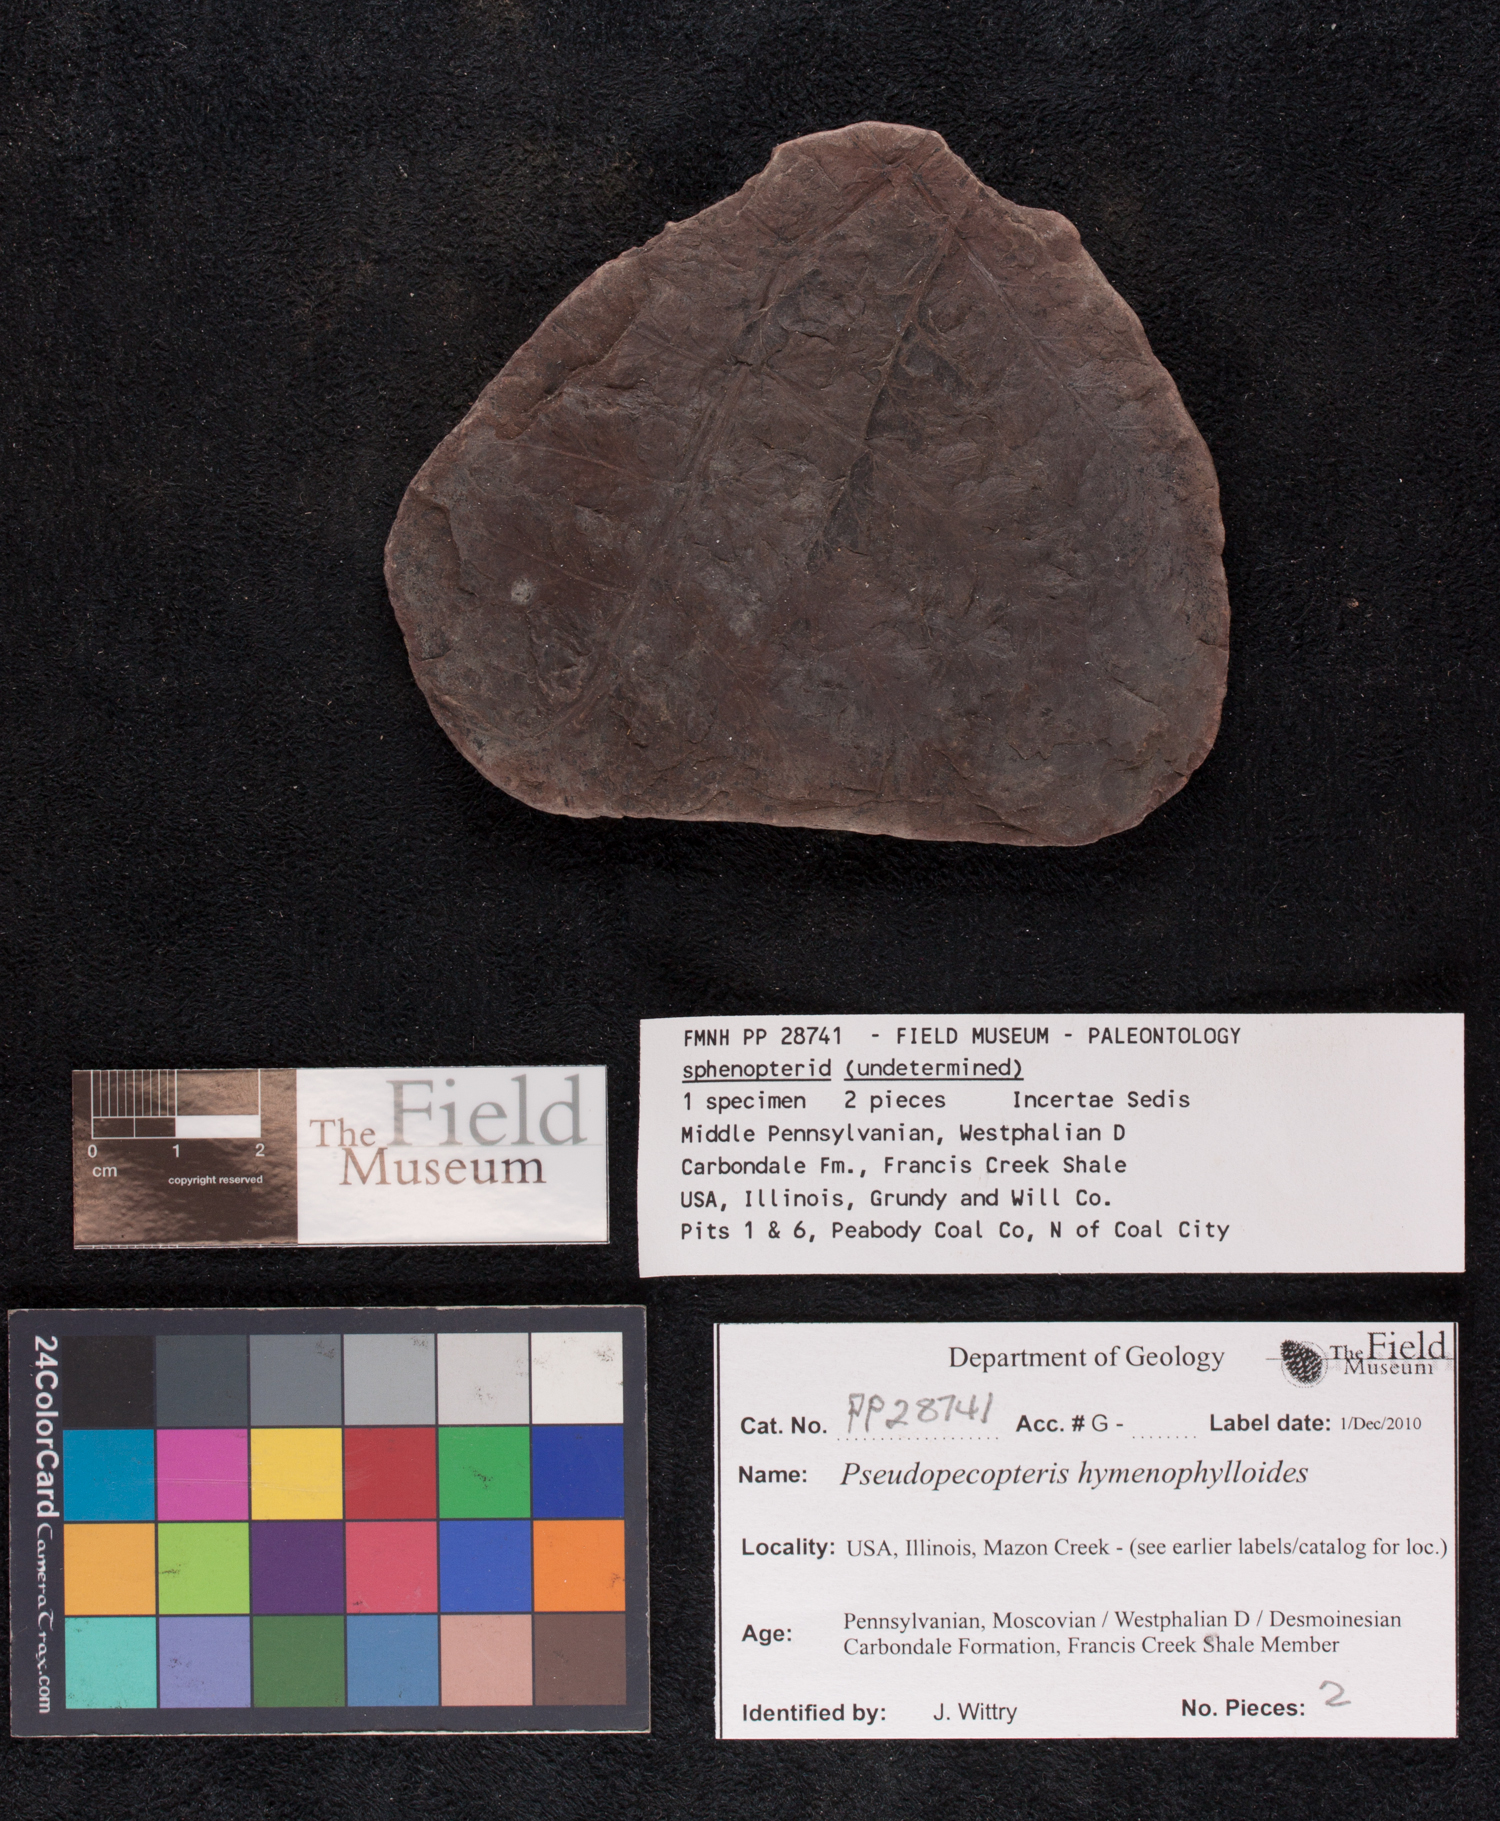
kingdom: Plantae
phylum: Tracheophyta
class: Polypodiopsida
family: Stauropteridaceae
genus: Crossotheca
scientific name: Crossotheca
